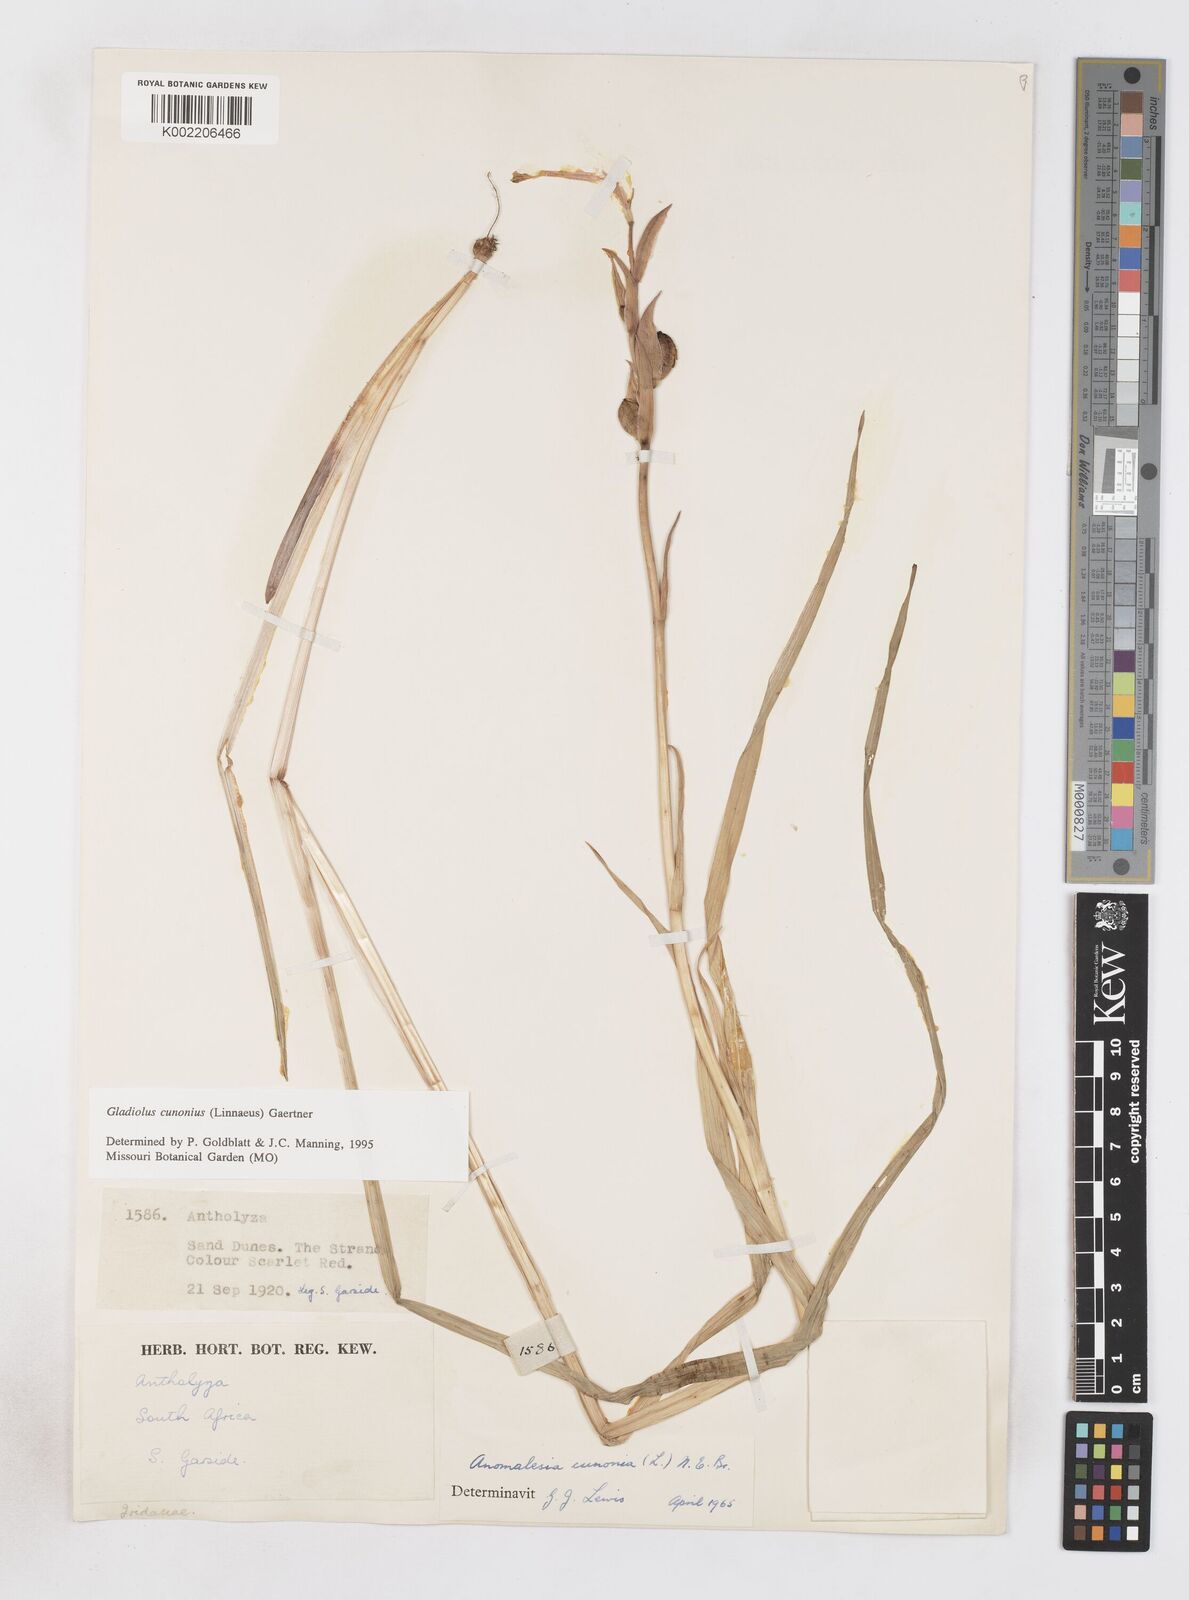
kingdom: Plantae
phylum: Tracheophyta
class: Liliopsida
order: Asparagales
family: Iridaceae
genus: Gladiolus
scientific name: Gladiolus cunonius
